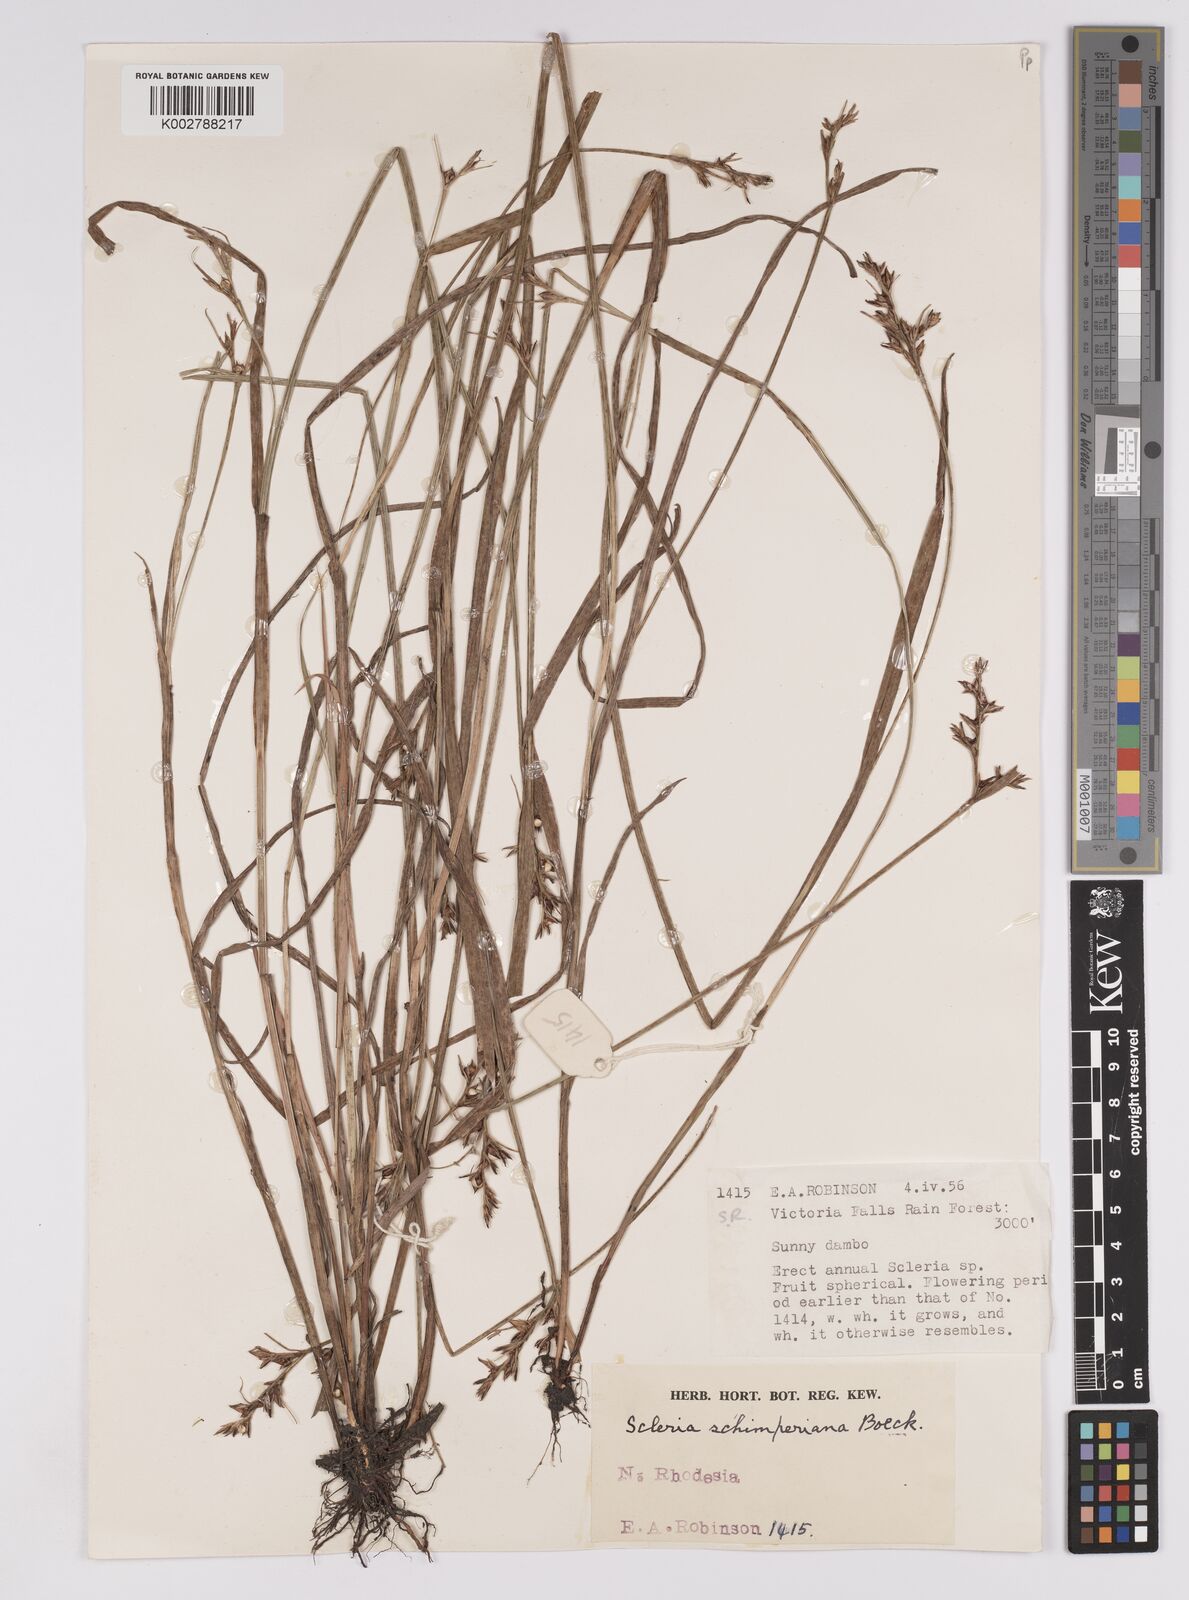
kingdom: Plantae
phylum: Tracheophyta
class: Liliopsida
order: Poales
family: Cyperaceae
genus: Scleria
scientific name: Scleria schimperiana
